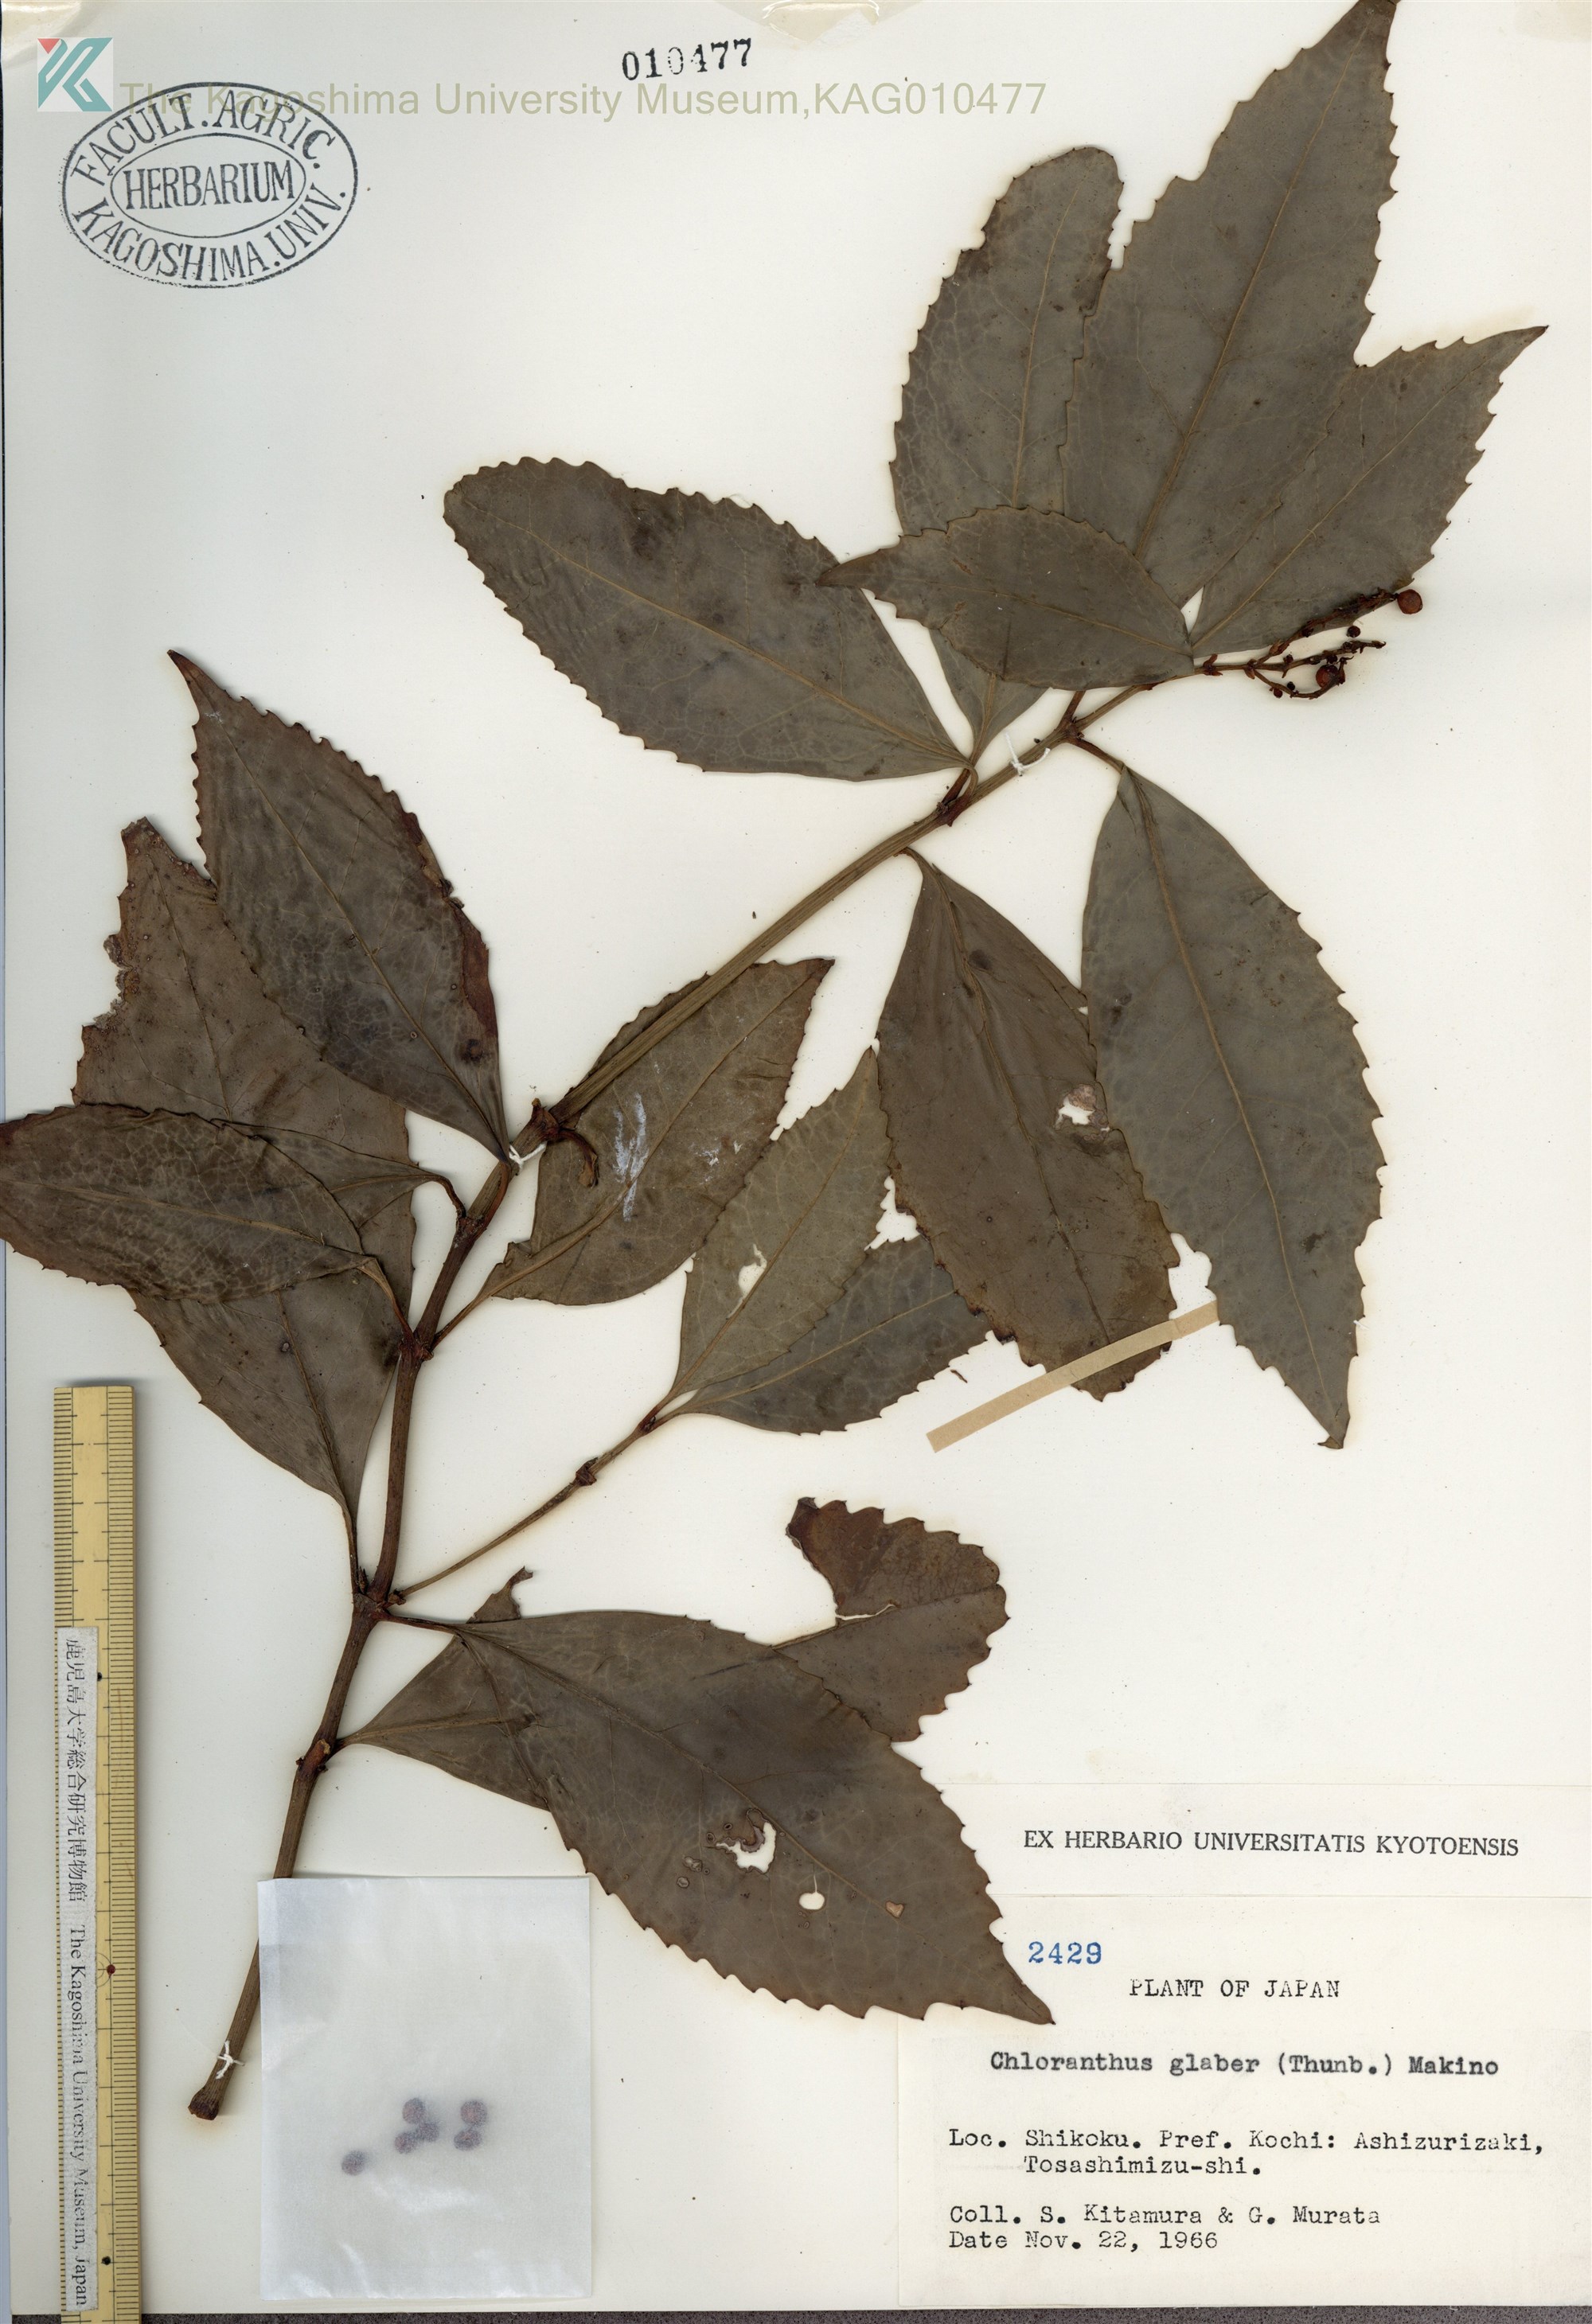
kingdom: Plantae
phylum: Tracheophyta
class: Magnoliopsida
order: Chloranthales
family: Chloranthaceae
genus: Sarcandra
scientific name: Sarcandra glabra
